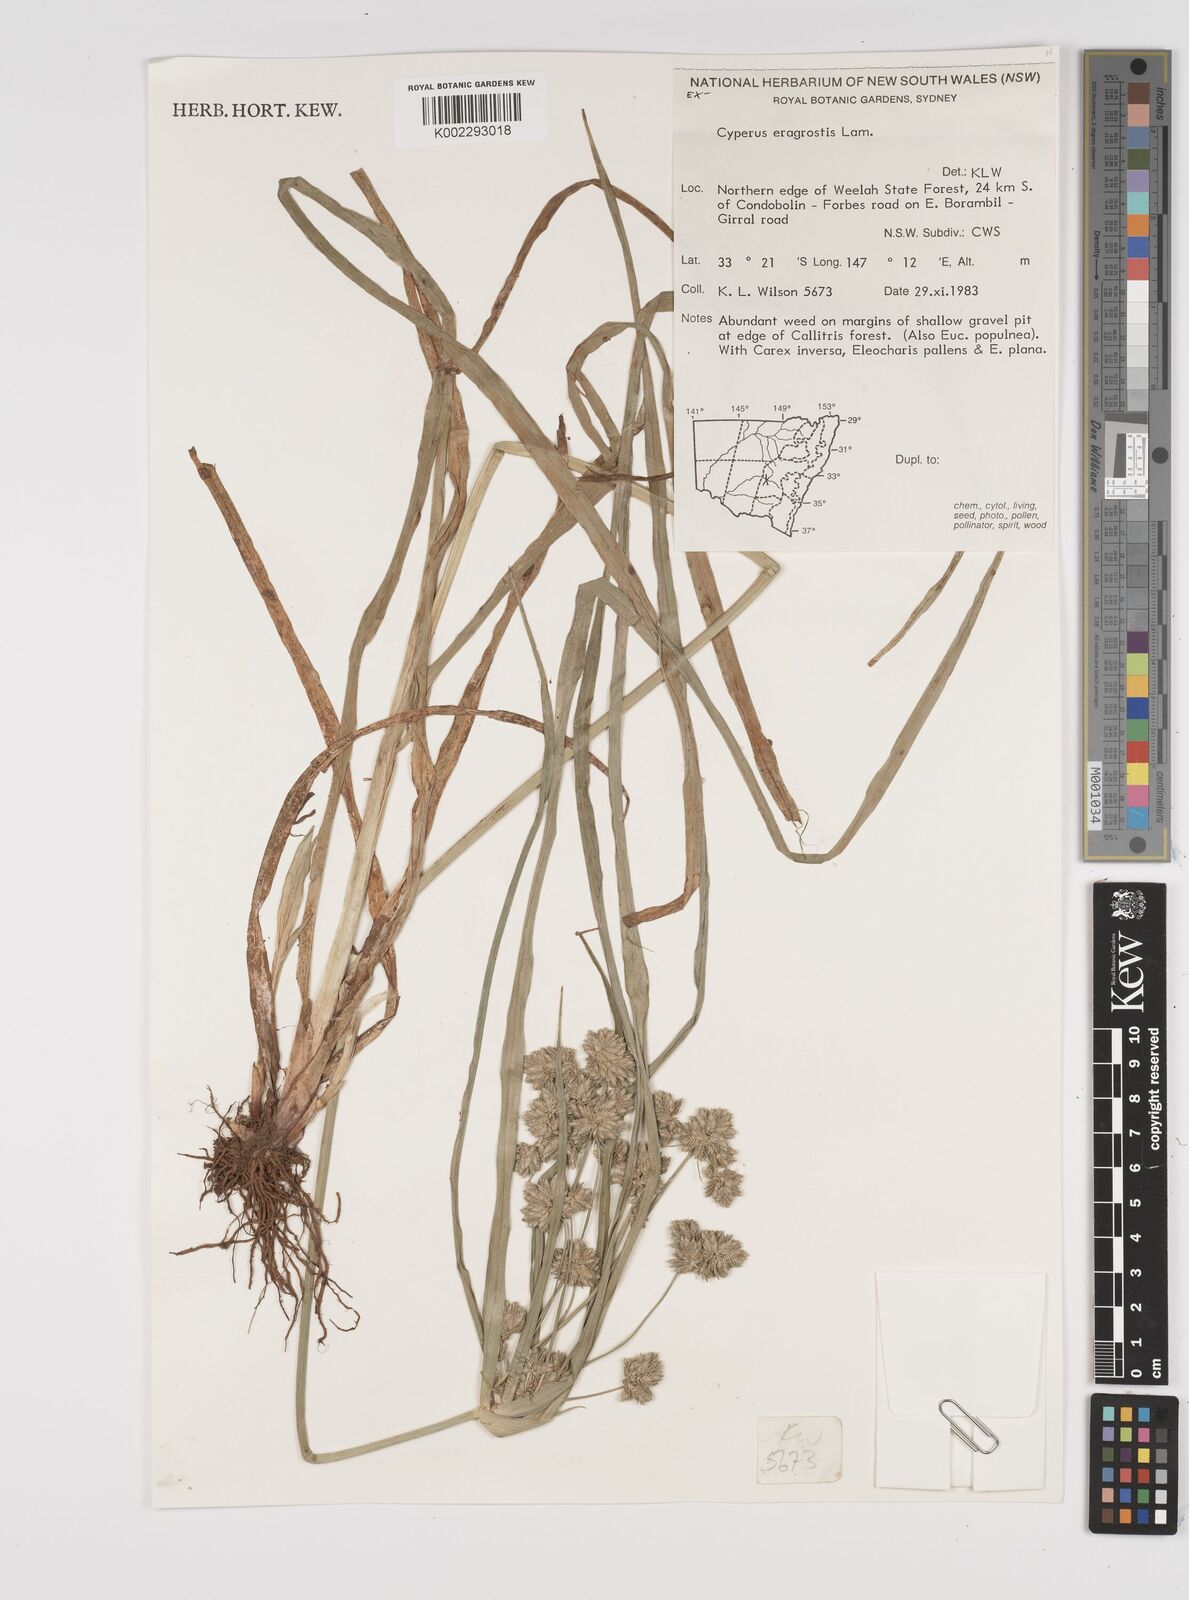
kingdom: Plantae
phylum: Tracheophyta
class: Liliopsida
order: Poales
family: Cyperaceae
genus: Cyperus
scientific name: Cyperus eragrostis
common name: Tall flatsedge
